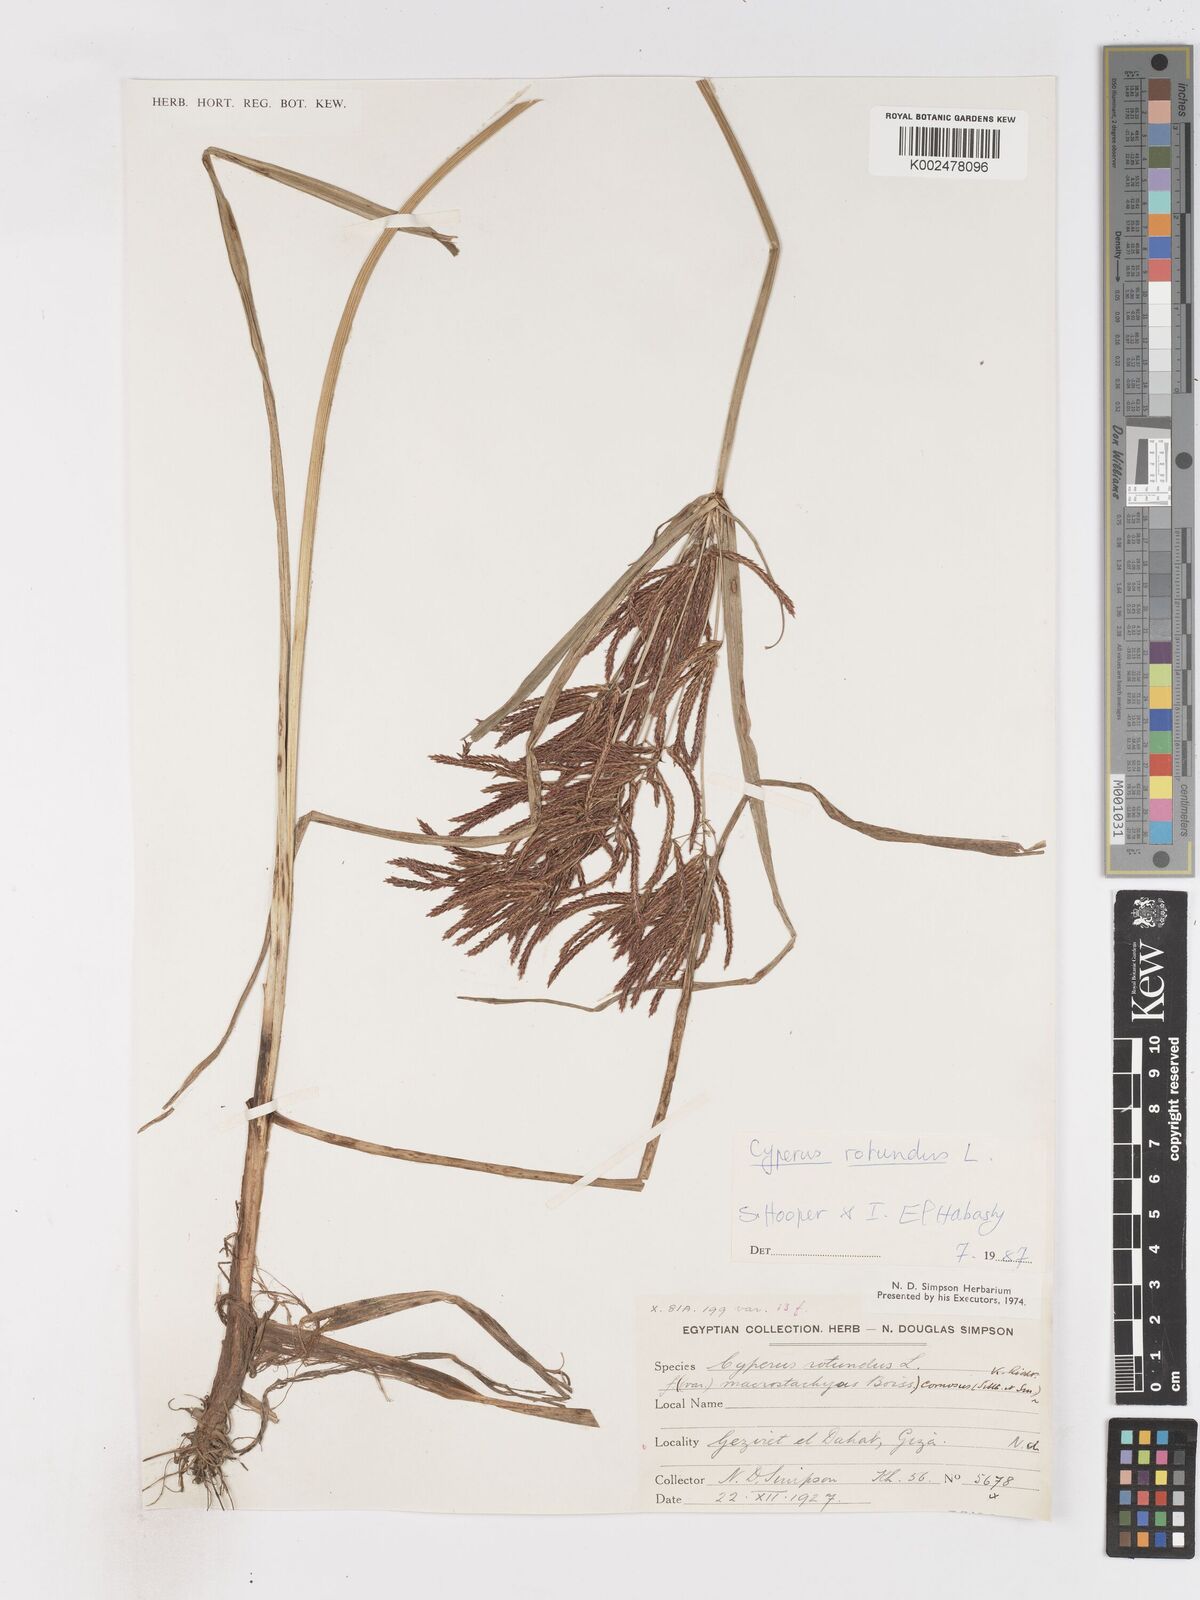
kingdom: Plantae
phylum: Tracheophyta
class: Liliopsida
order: Poales
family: Cyperaceae
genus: Cyperus
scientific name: Cyperus rotundus
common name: Nutgrass
